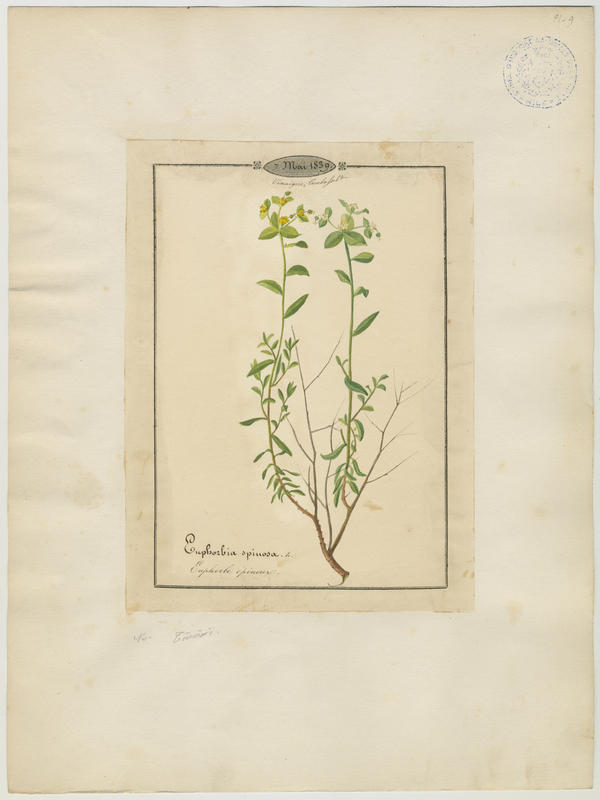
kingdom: Plantae
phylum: Tracheophyta
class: Magnoliopsida
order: Malpighiales
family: Euphorbiaceae
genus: Euphorbia
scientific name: Euphorbia spinosa
